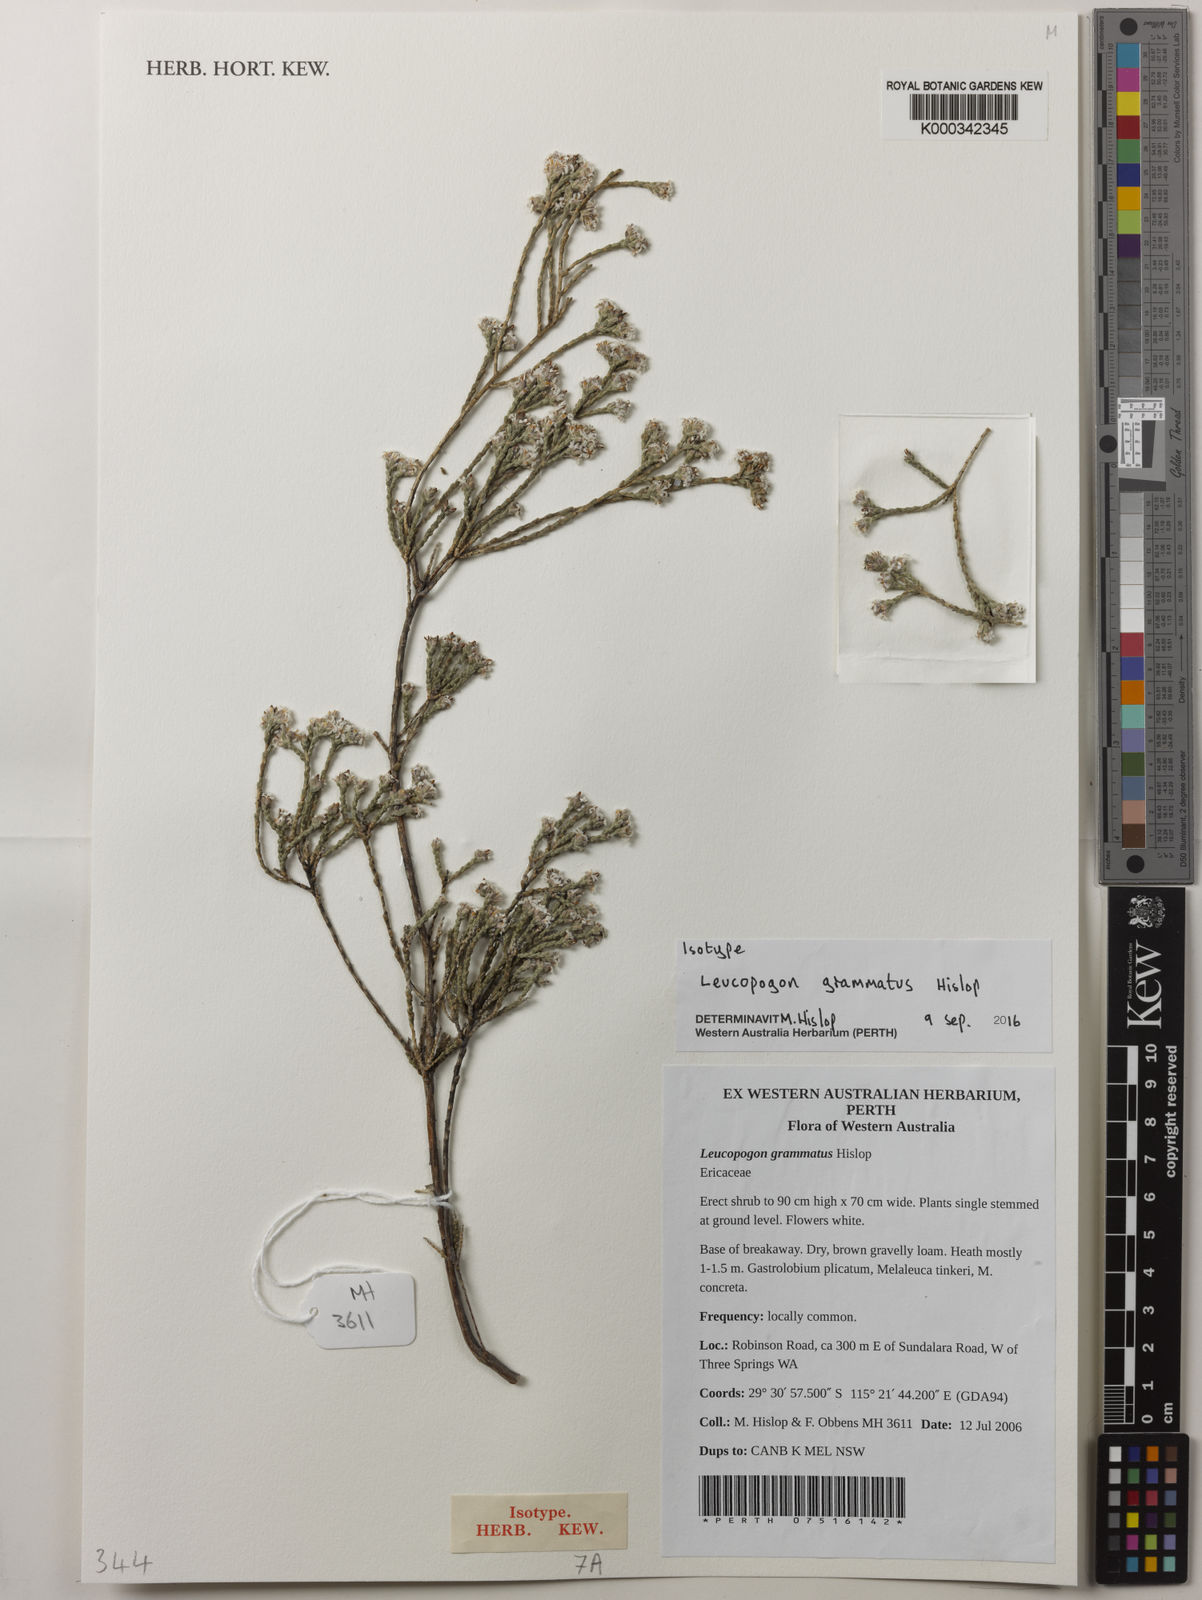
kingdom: Plantae
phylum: Tracheophyta
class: Magnoliopsida
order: Ericales
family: Ericaceae
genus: Leucopogon
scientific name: Leucopogon grammatus
